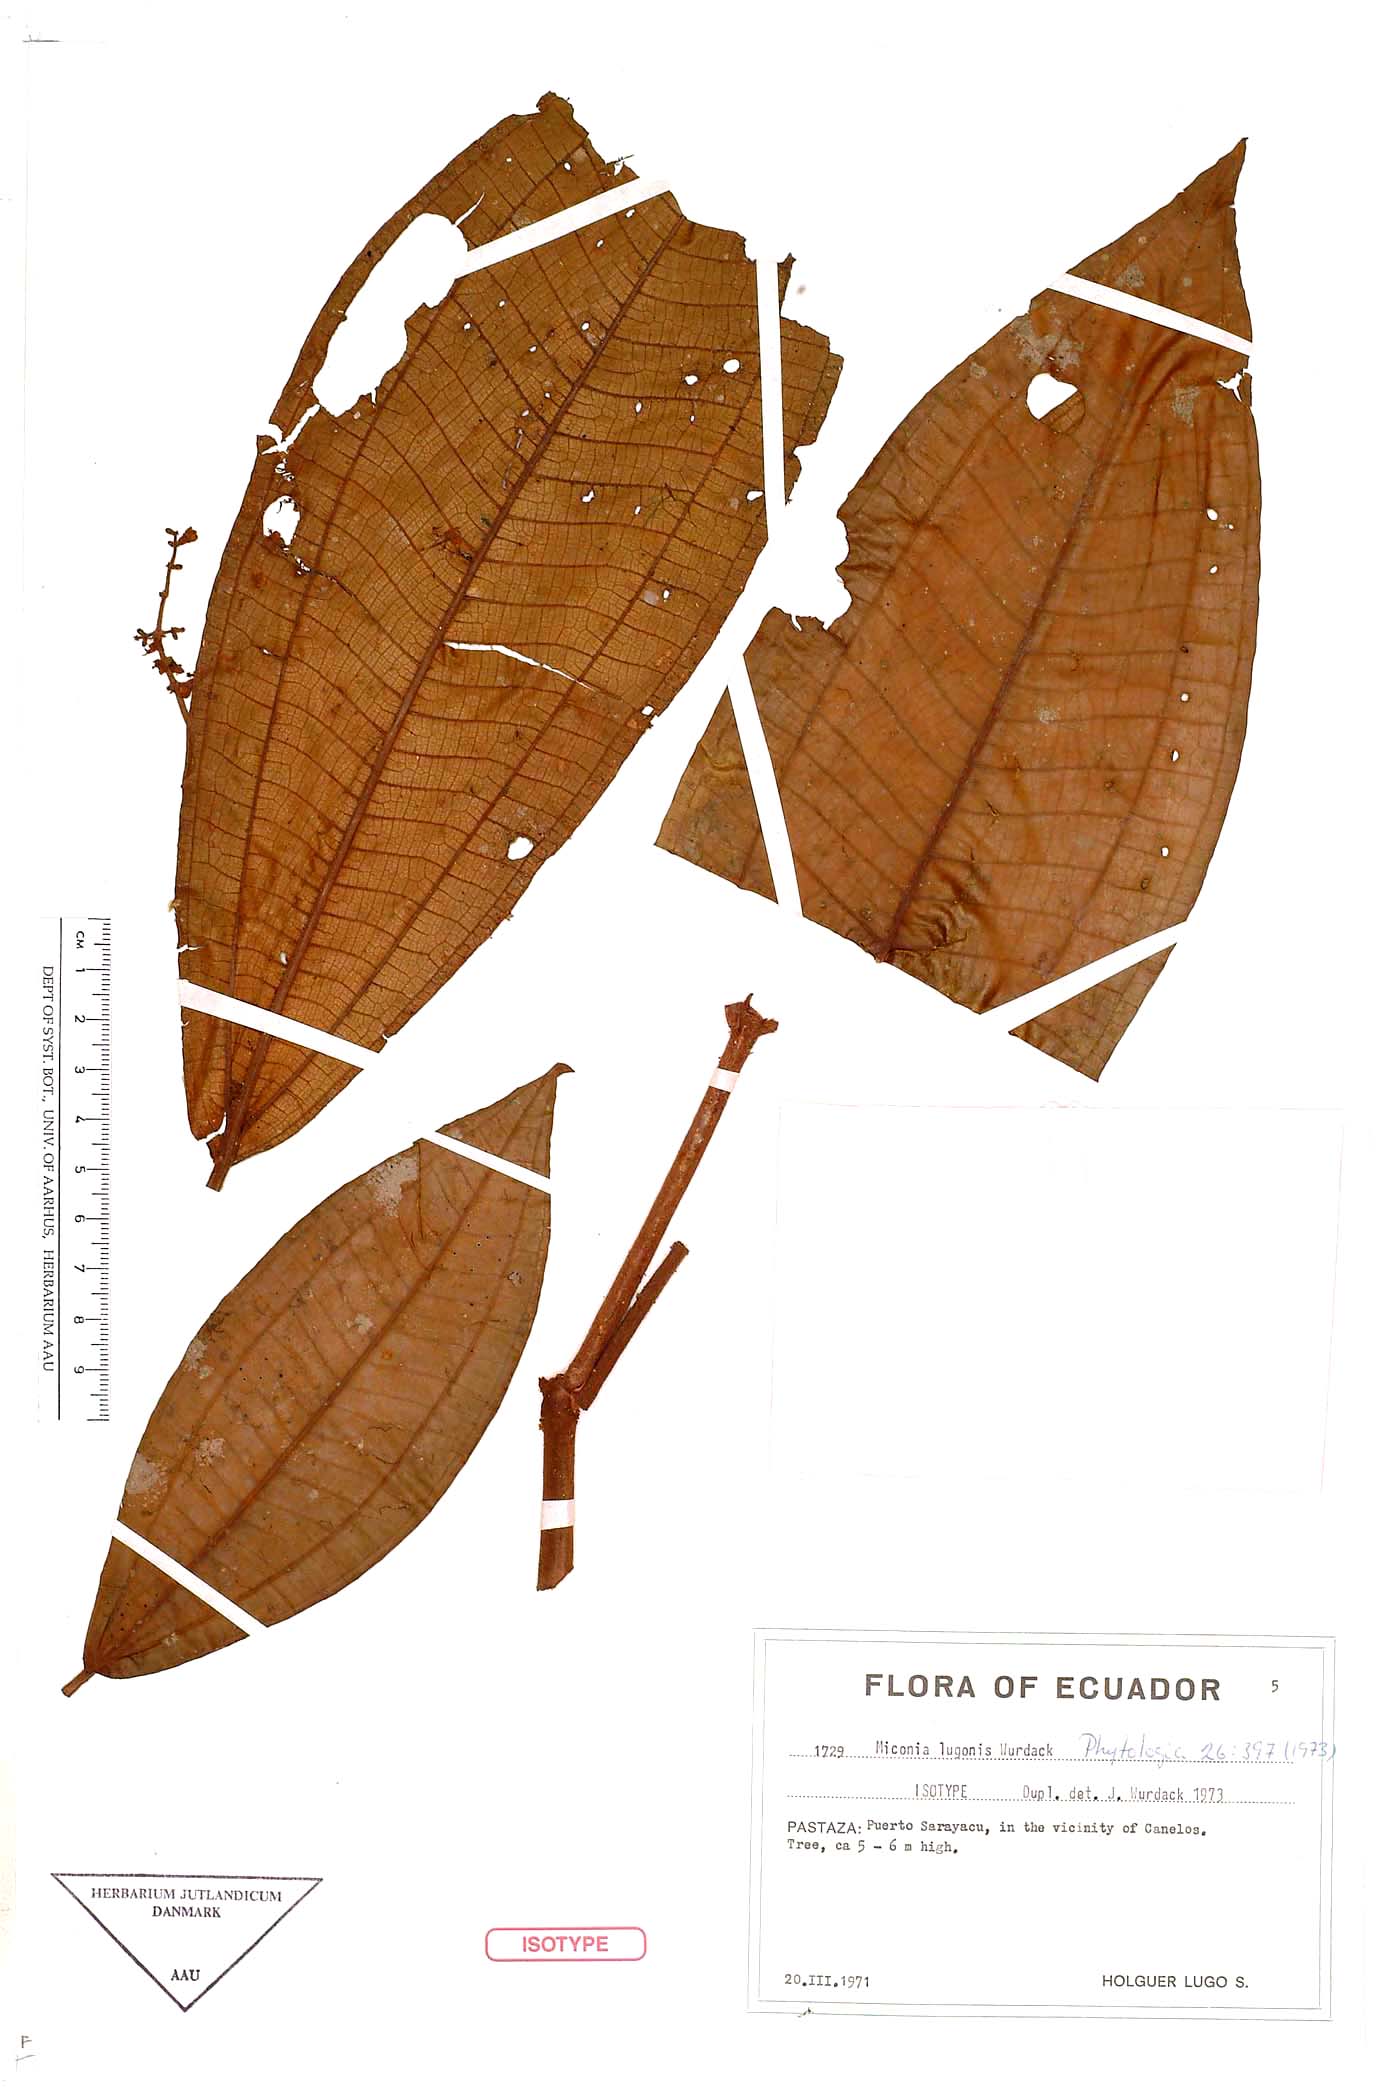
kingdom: Plantae
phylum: Tracheophyta
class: Magnoliopsida
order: Myrtales
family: Melastomataceae
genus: Miconia
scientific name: Miconia lugonis
